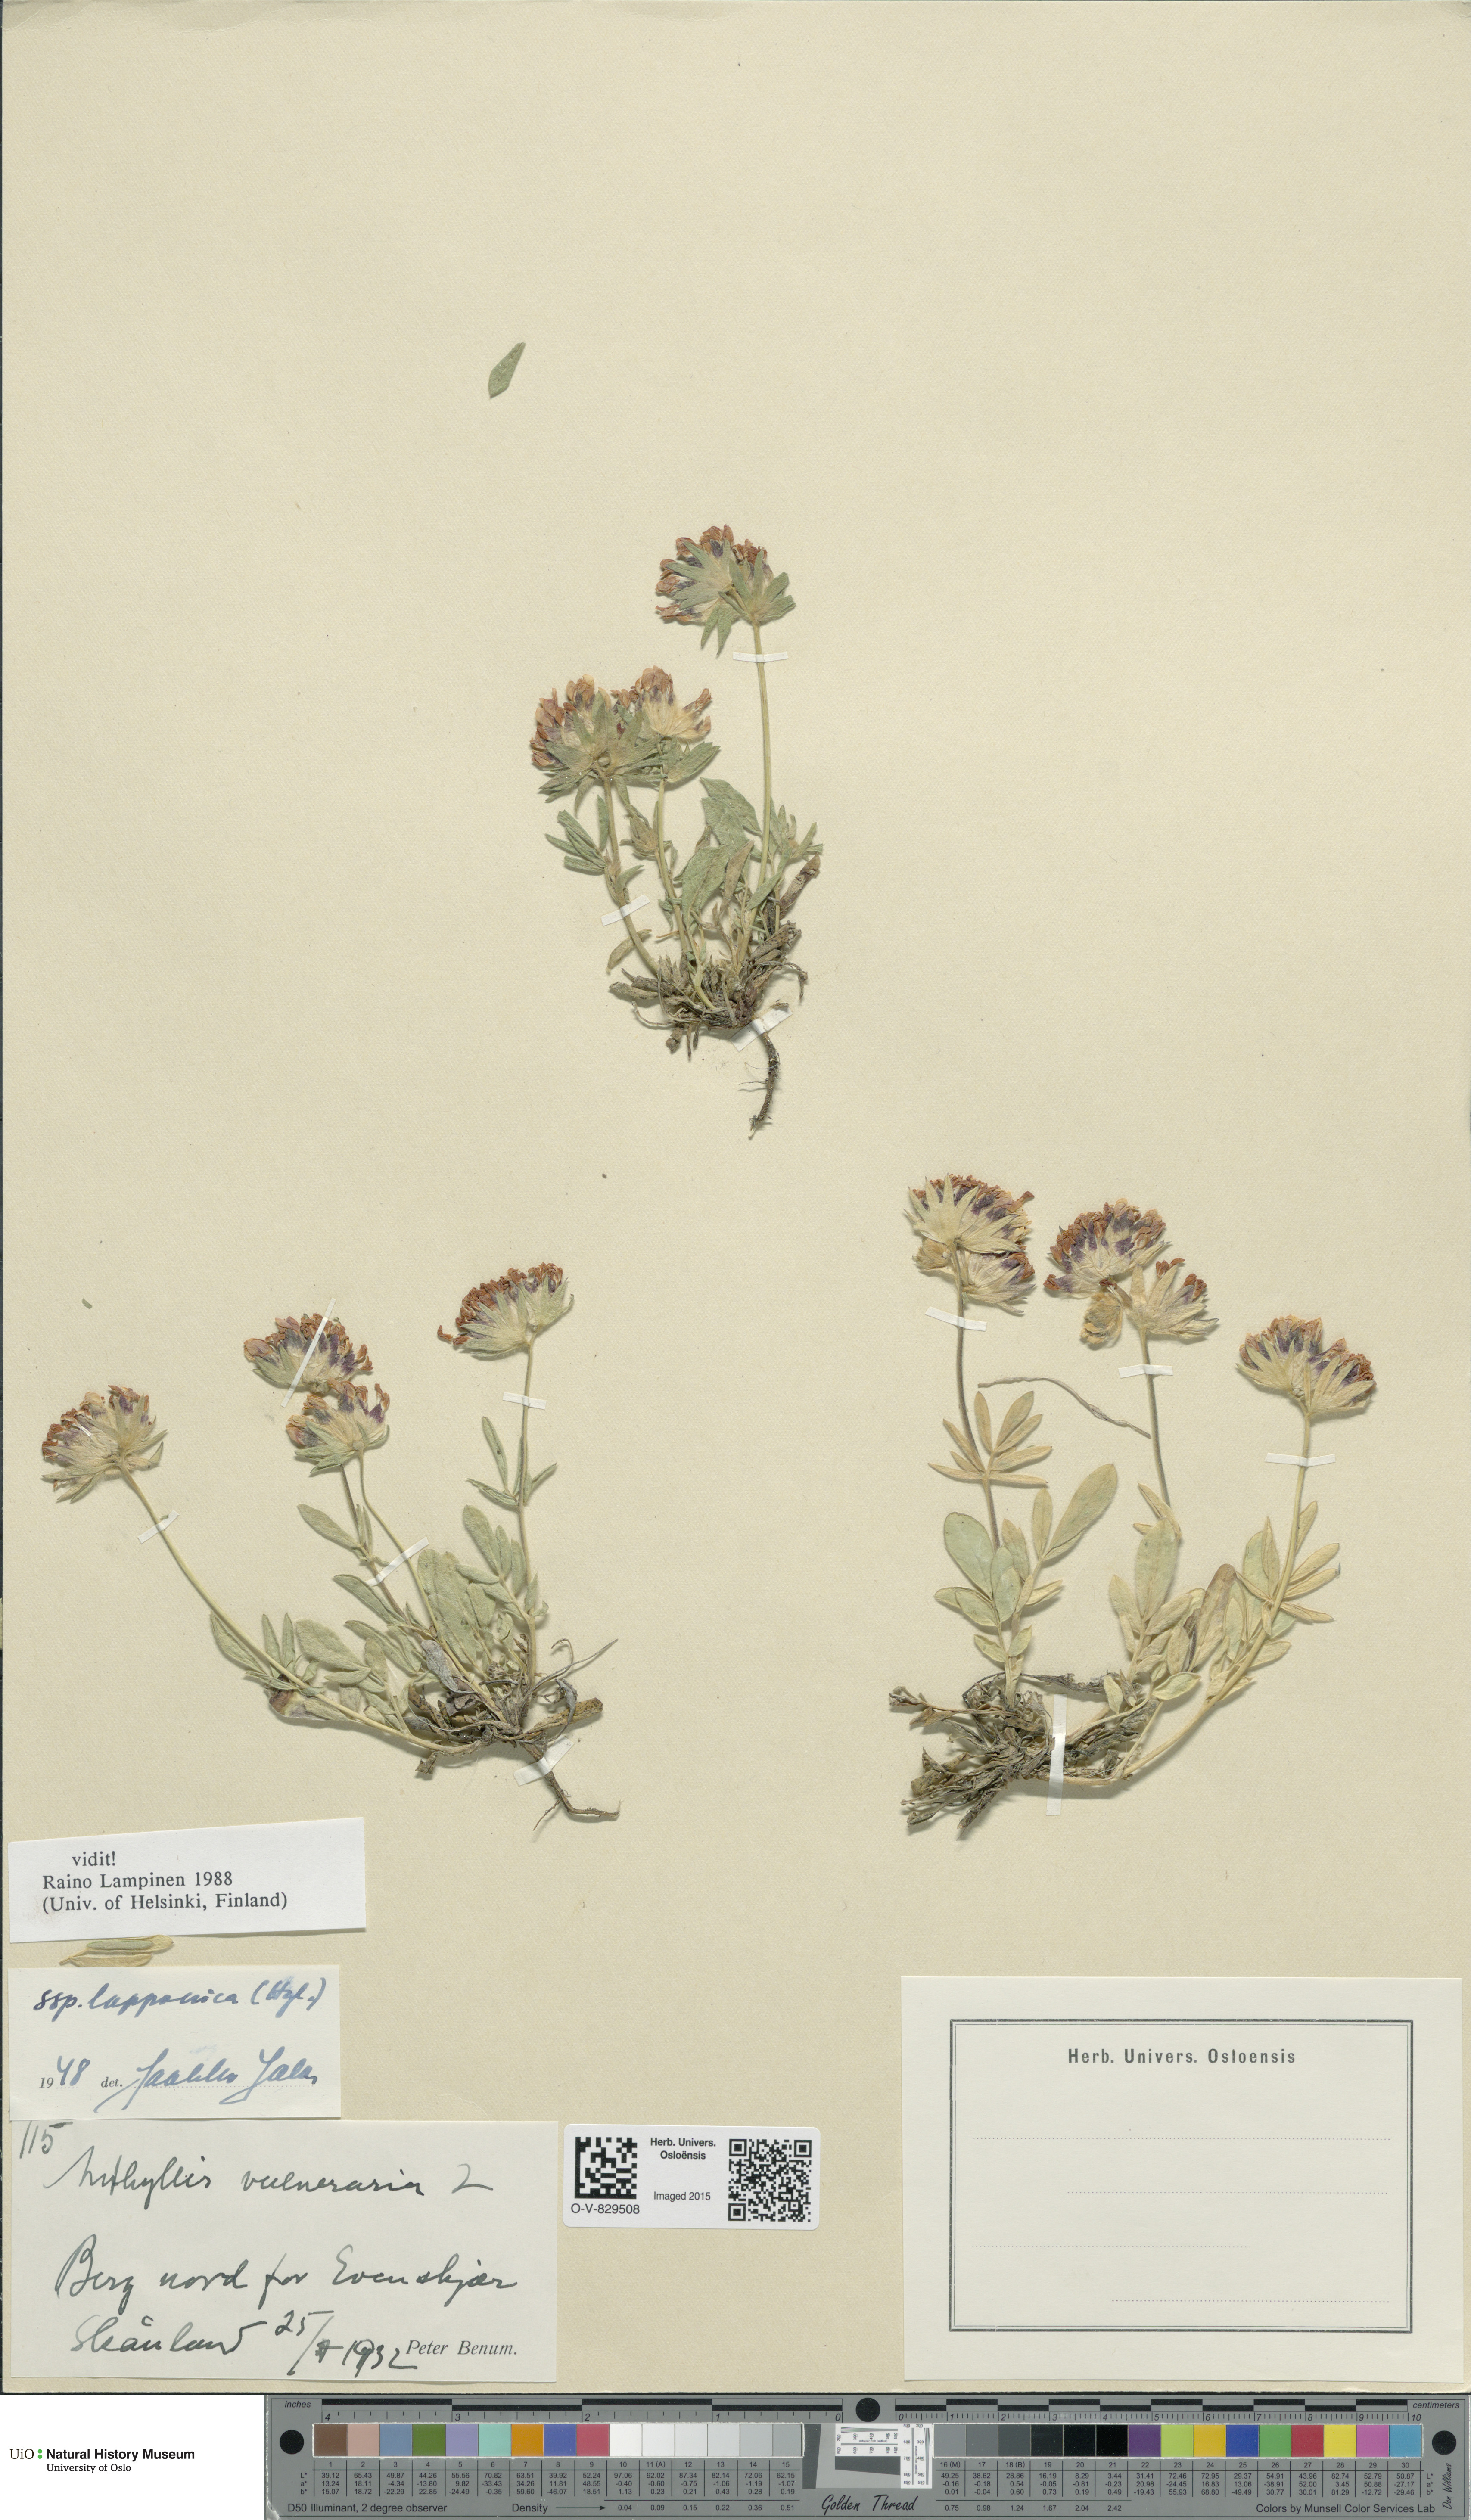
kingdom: Plantae
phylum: Tracheophyta
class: Magnoliopsida
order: Fabales
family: Fabaceae
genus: Anthyllis
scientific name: Anthyllis vulneraria
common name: Kidney vetch
